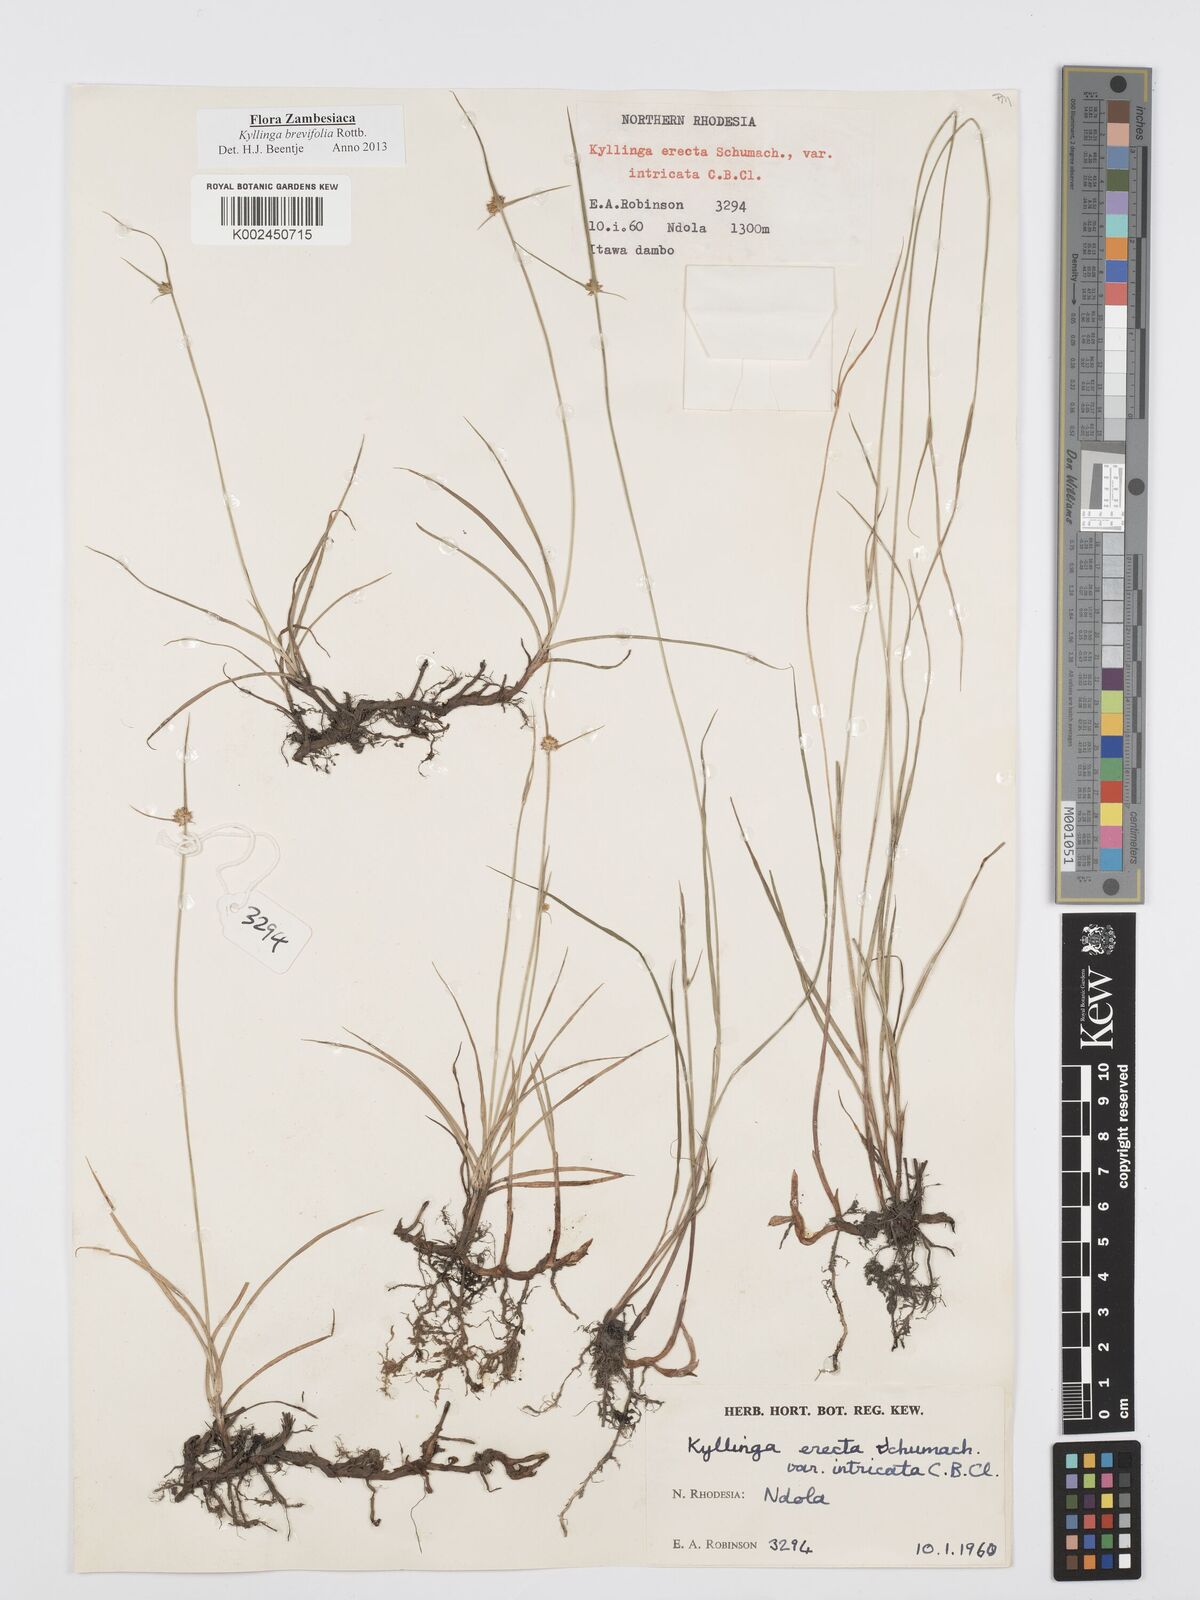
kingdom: Plantae
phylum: Tracheophyta
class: Liliopsida
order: Poales
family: Cyperaceae
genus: Cyperus
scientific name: Cyperus brevifolius
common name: Globe kyllinga
